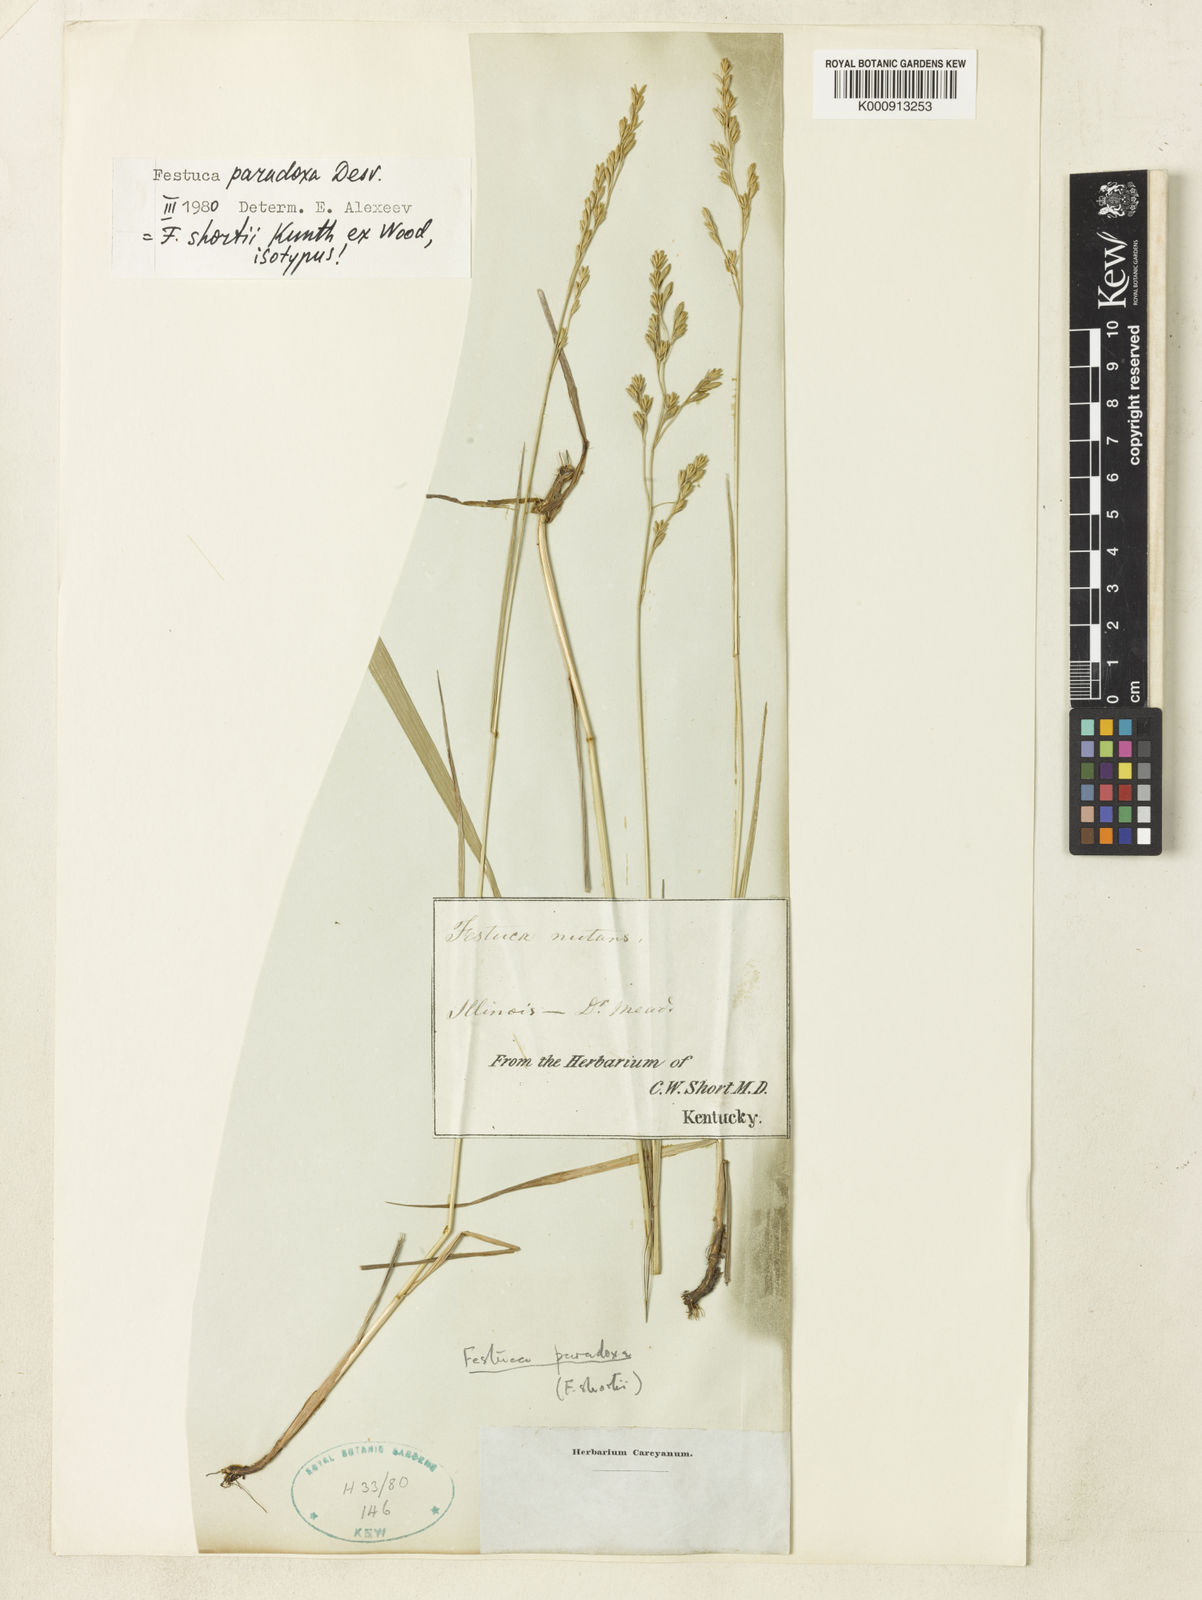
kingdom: Plantae
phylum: Tracheophyta
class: Liliopsida
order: Poales
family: Poaceae
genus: Festuca
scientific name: Festuca paradoxa
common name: Cluster fescue
